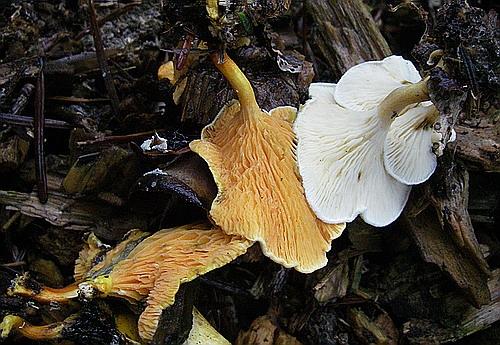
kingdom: Fungi
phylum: Basidiomycota
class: Agaricomycetes
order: Boletales
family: Hygrophoropsidaceae
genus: Hygrophoropsis
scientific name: Hygrophoropsis aurantiaca
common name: almindelig orangekantarel
